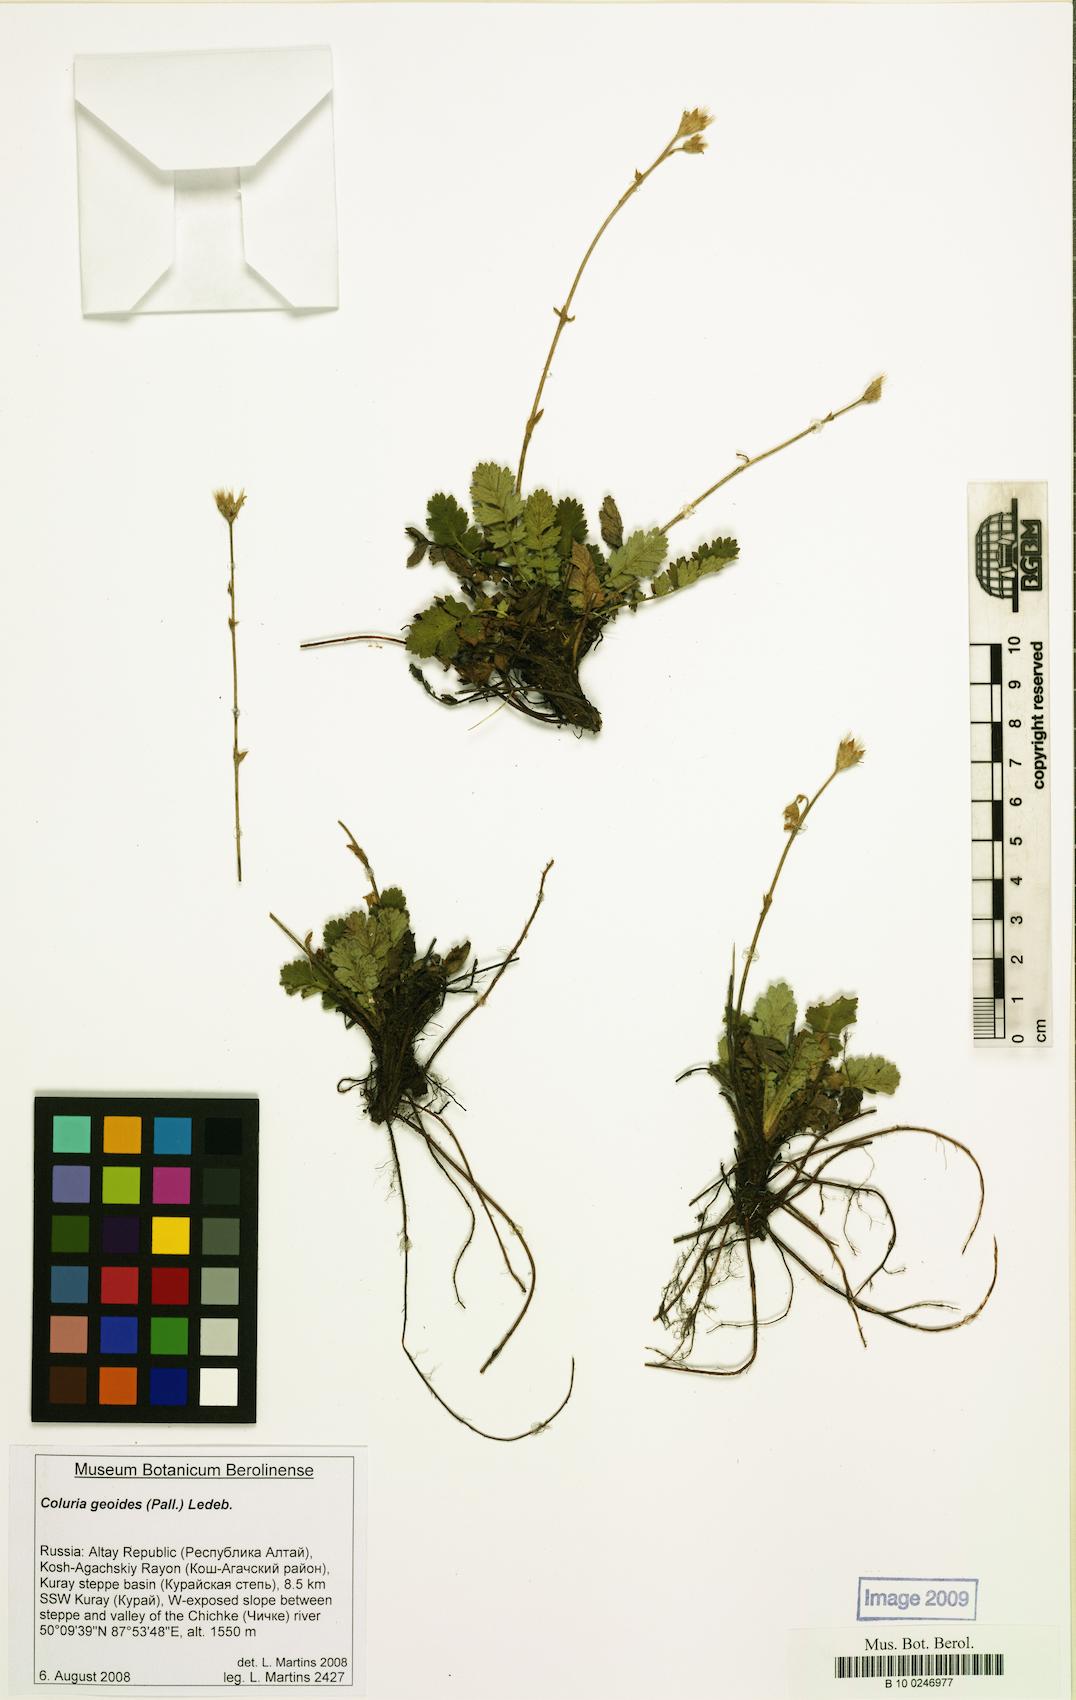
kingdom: Plantae
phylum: Tracheophyta
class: Magnoliopsida
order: Rosales
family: Rosaceae
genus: Geum
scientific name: Geum geoides
